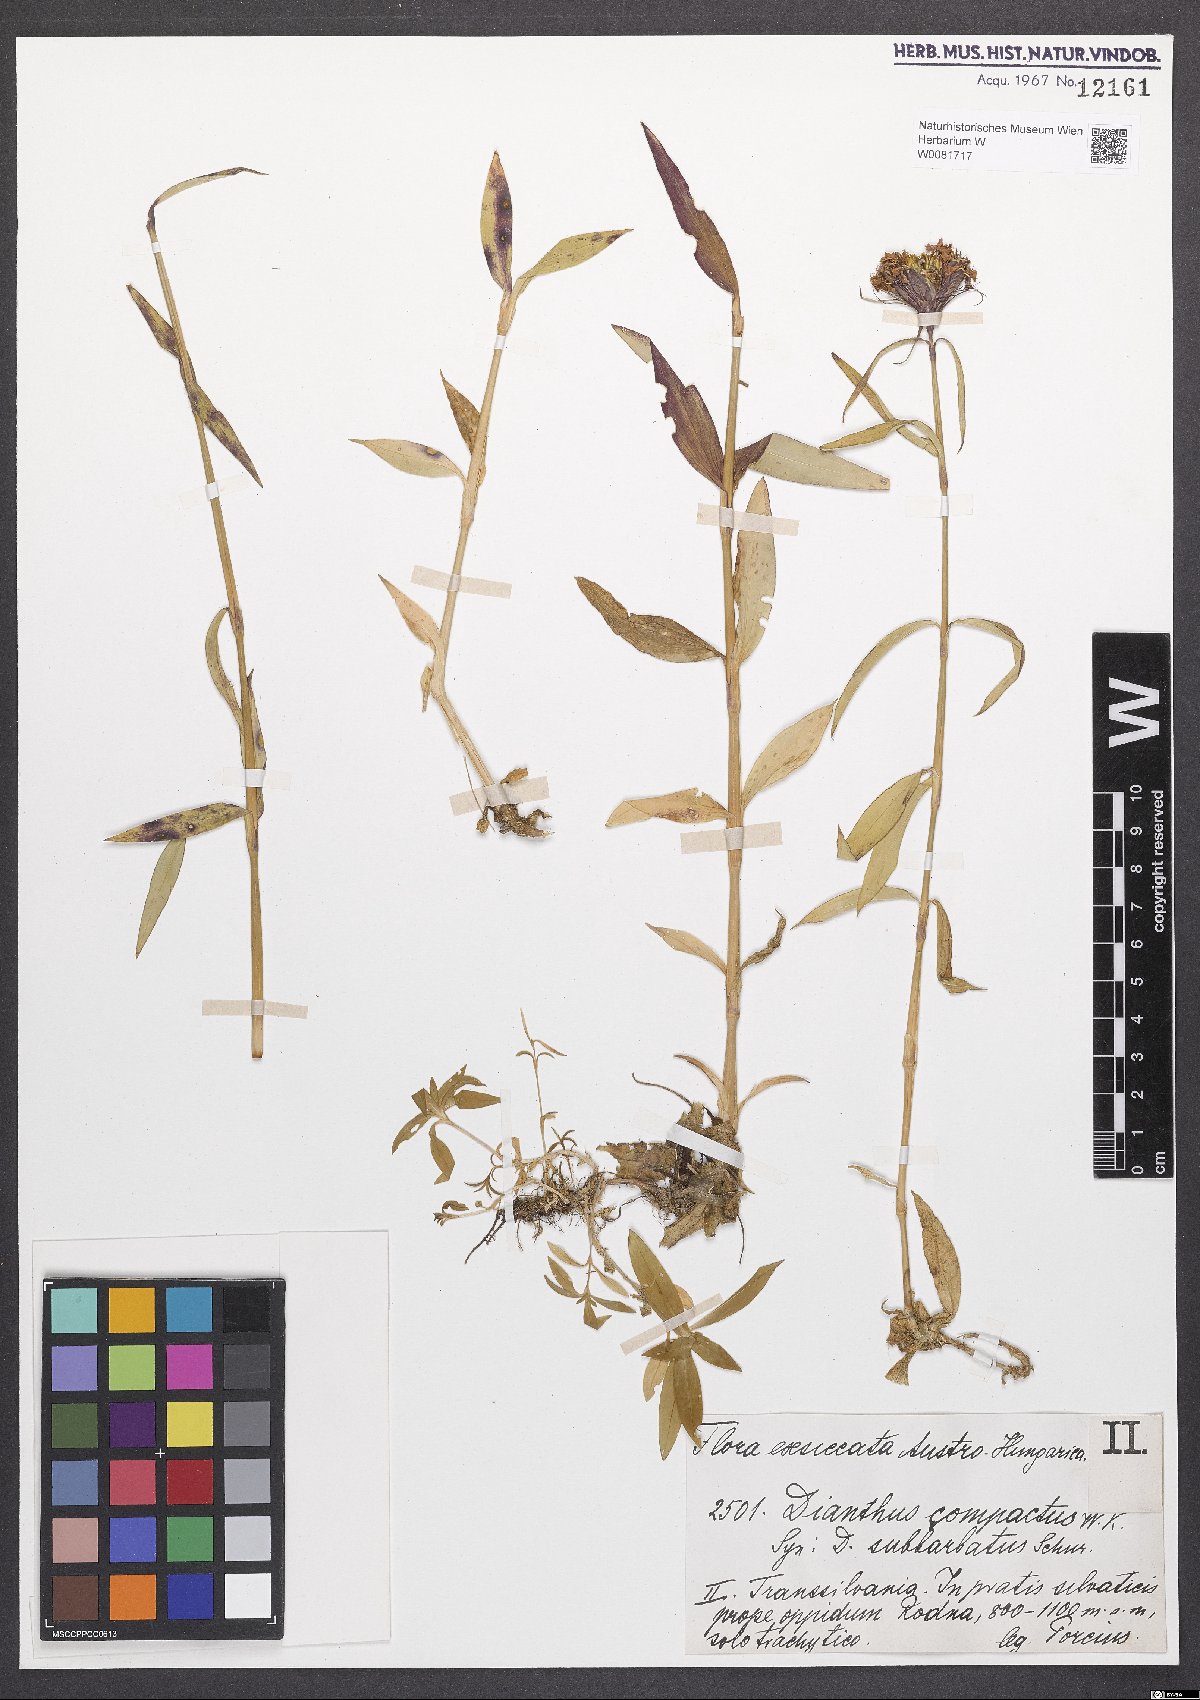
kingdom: Plantae
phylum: Tracheophyta
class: Magnoliopsida
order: Caryophyllales
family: Caryophyllaceae
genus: Dianthus
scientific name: Dianthus barbatus
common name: Sweet-william
